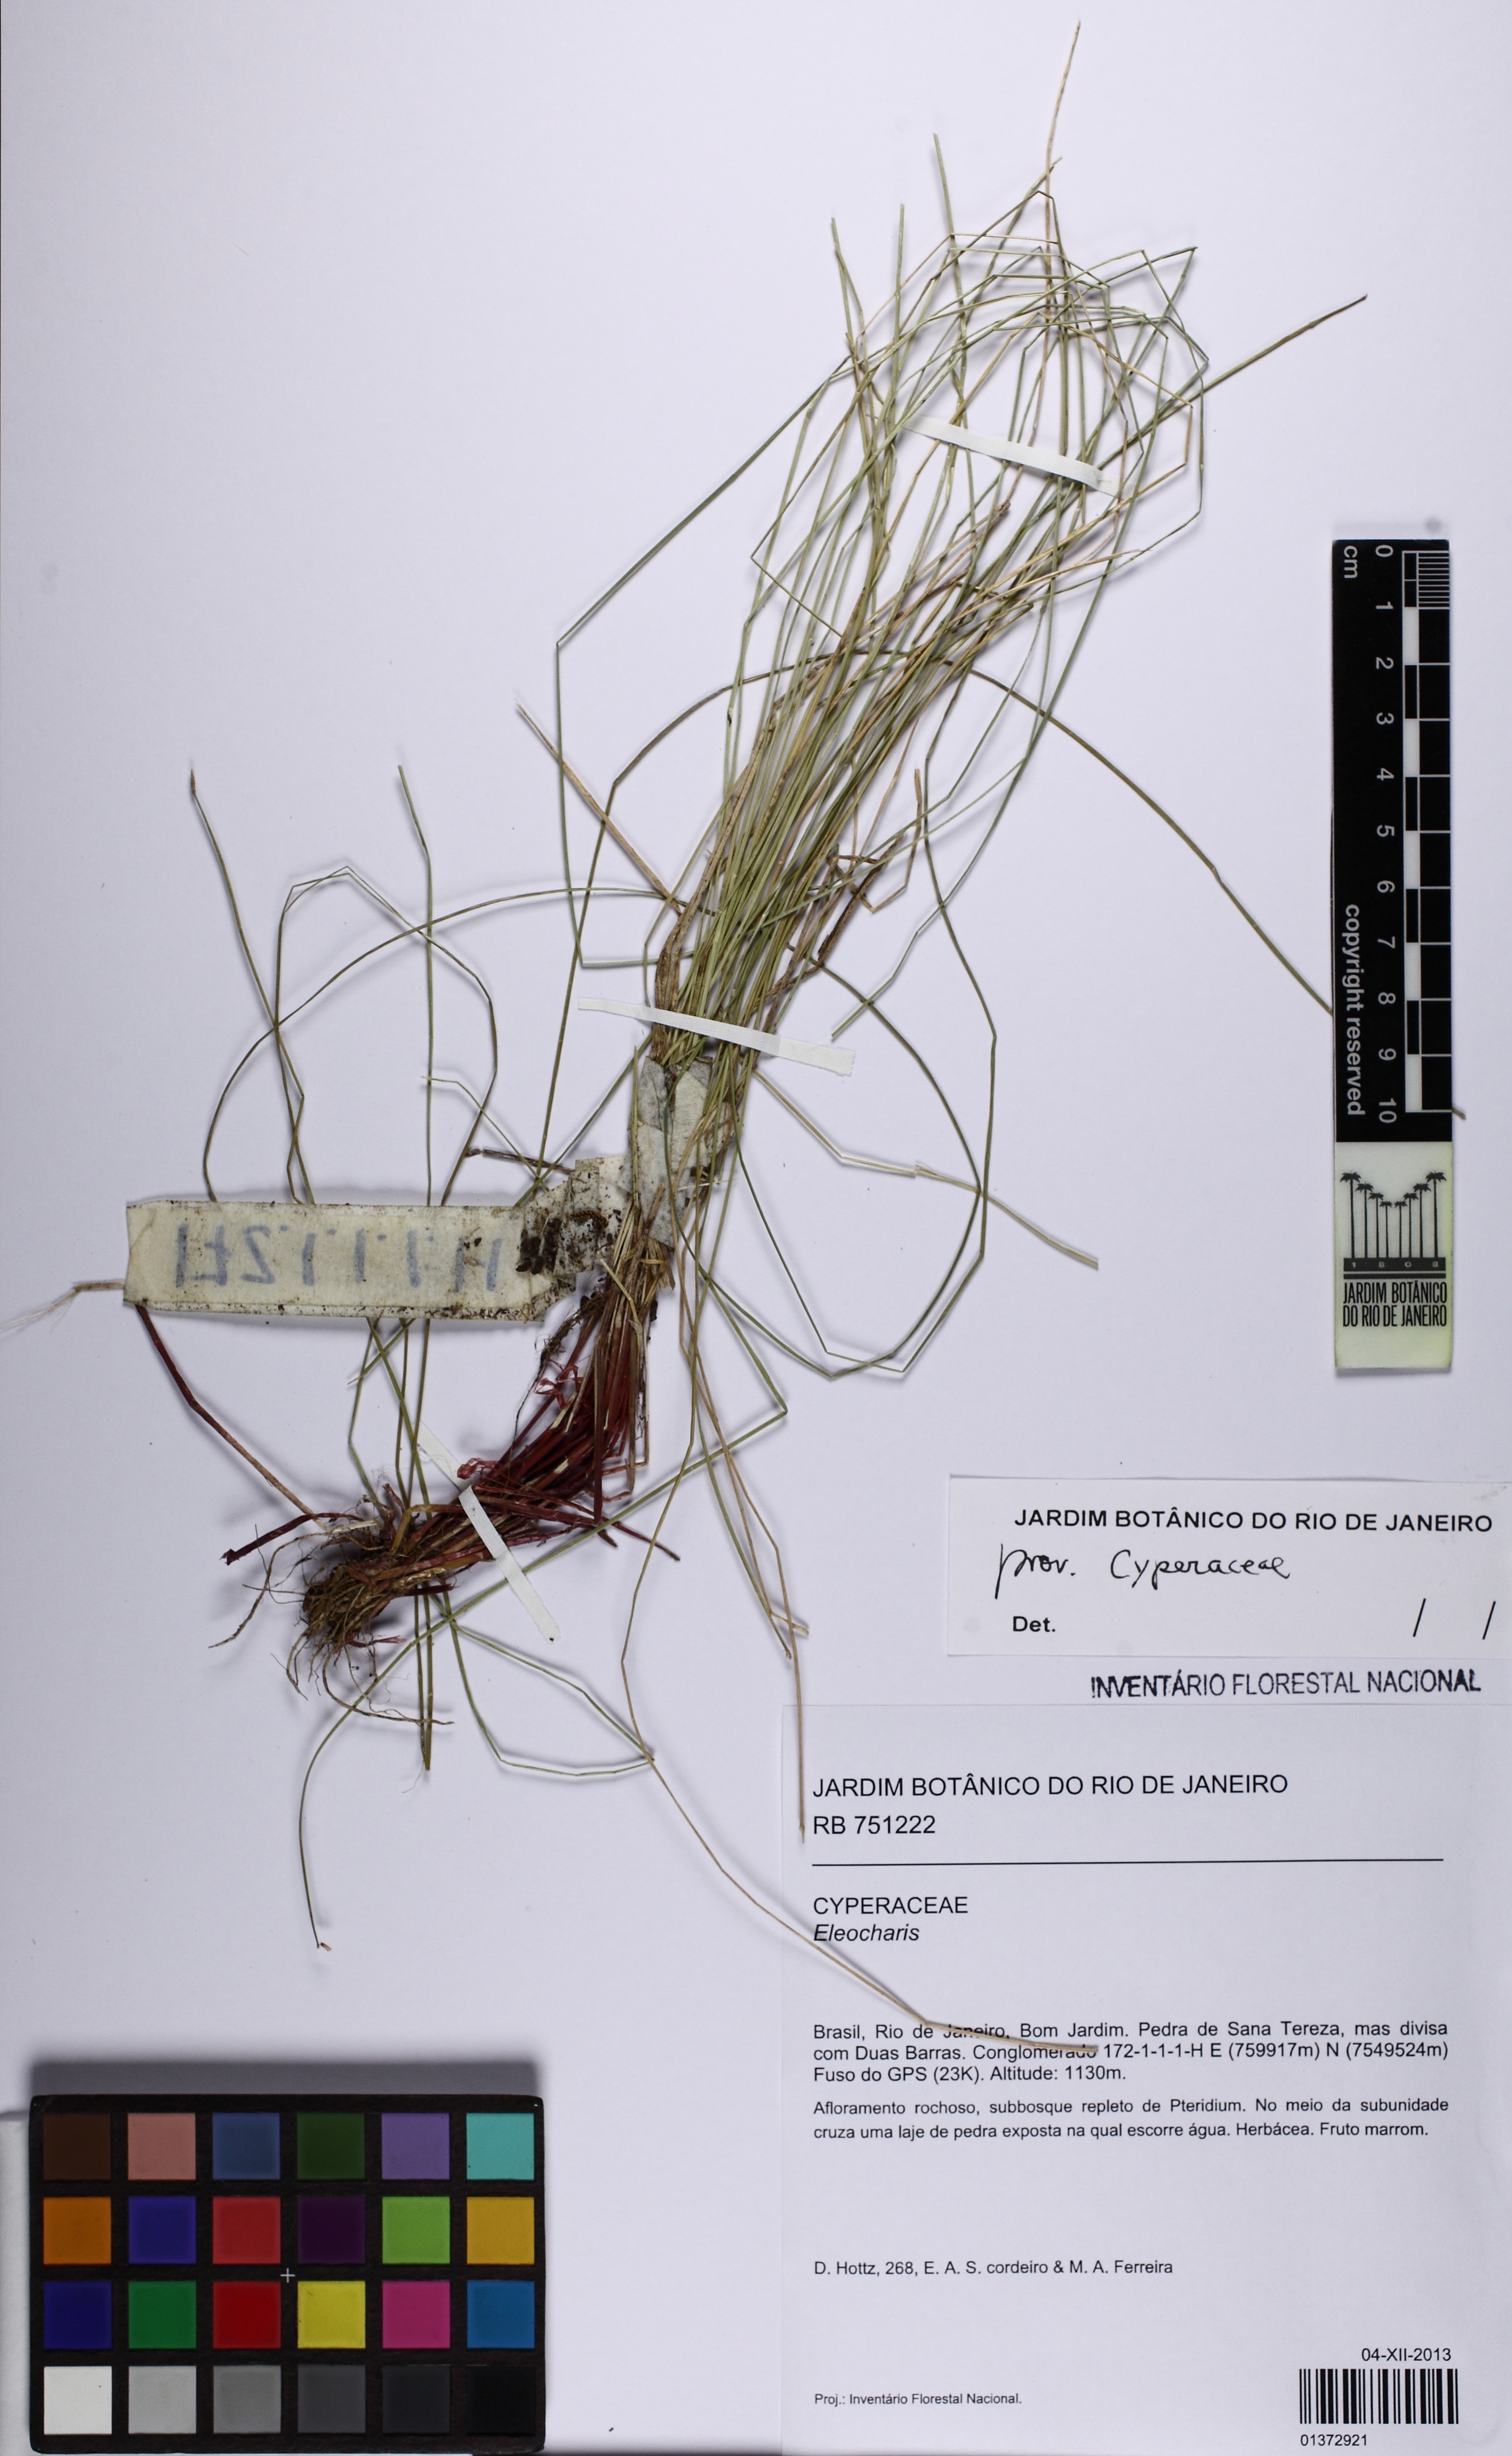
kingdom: Plantae
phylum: Tracheophyta
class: Liliopsida
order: Poales
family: Cyperaceae
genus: Eleocharis
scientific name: Eleocharis
